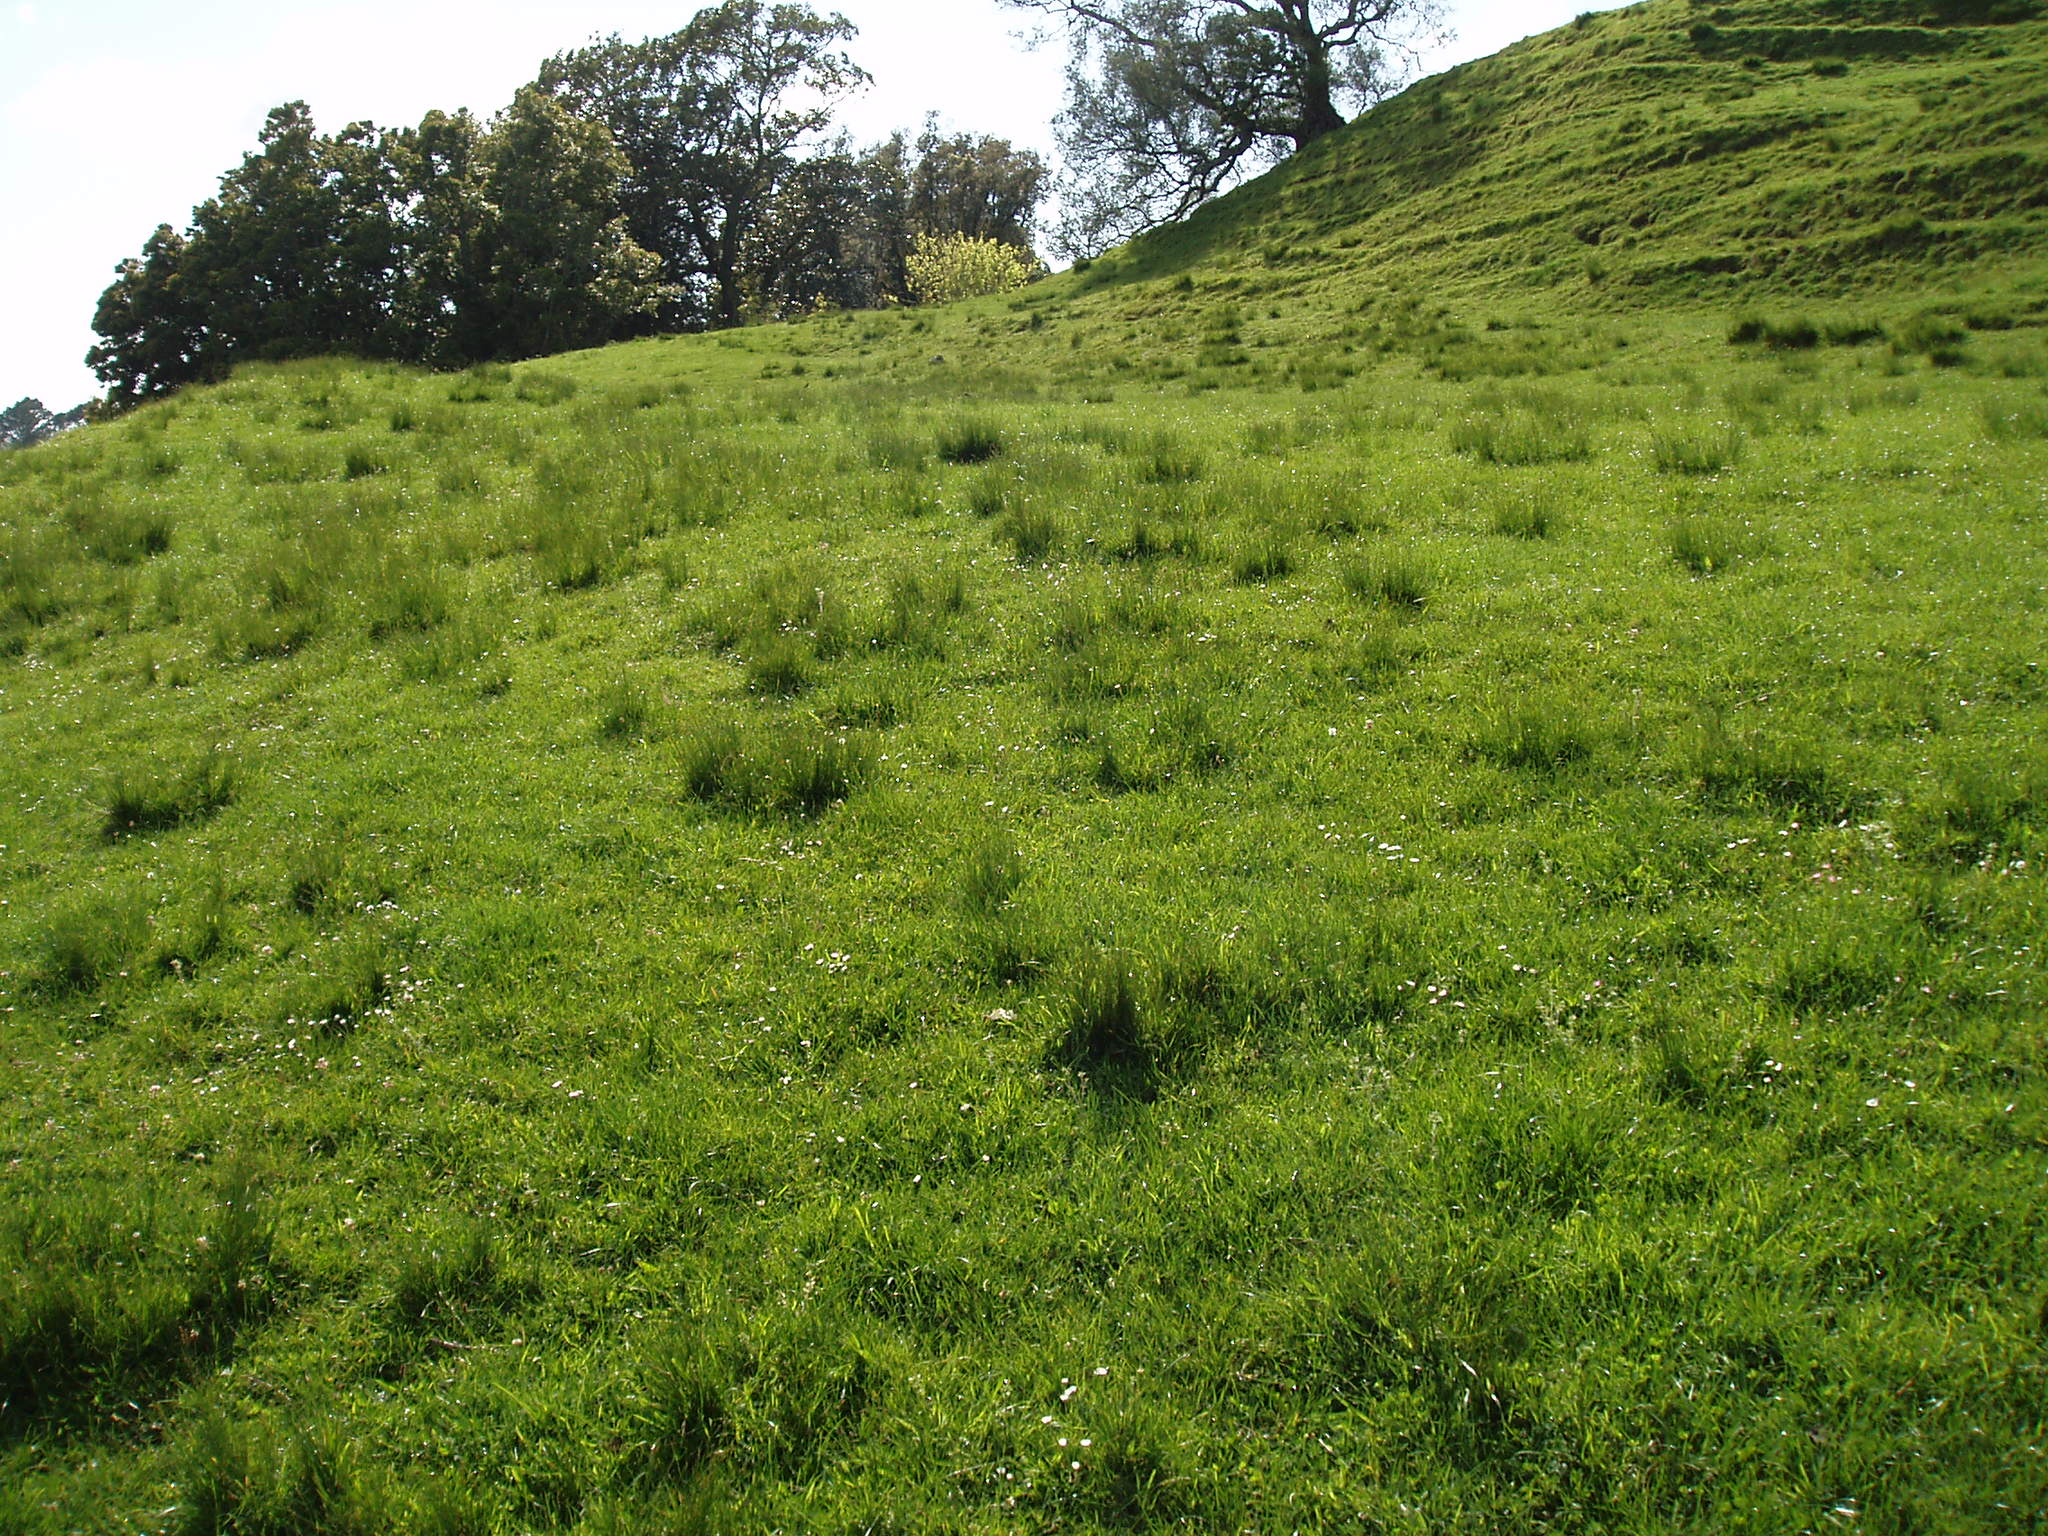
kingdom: Plantae
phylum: Tracheophyta
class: Liliopsida
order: Poales
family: Juncaceae
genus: Juncus
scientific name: Juncus imbricatus
